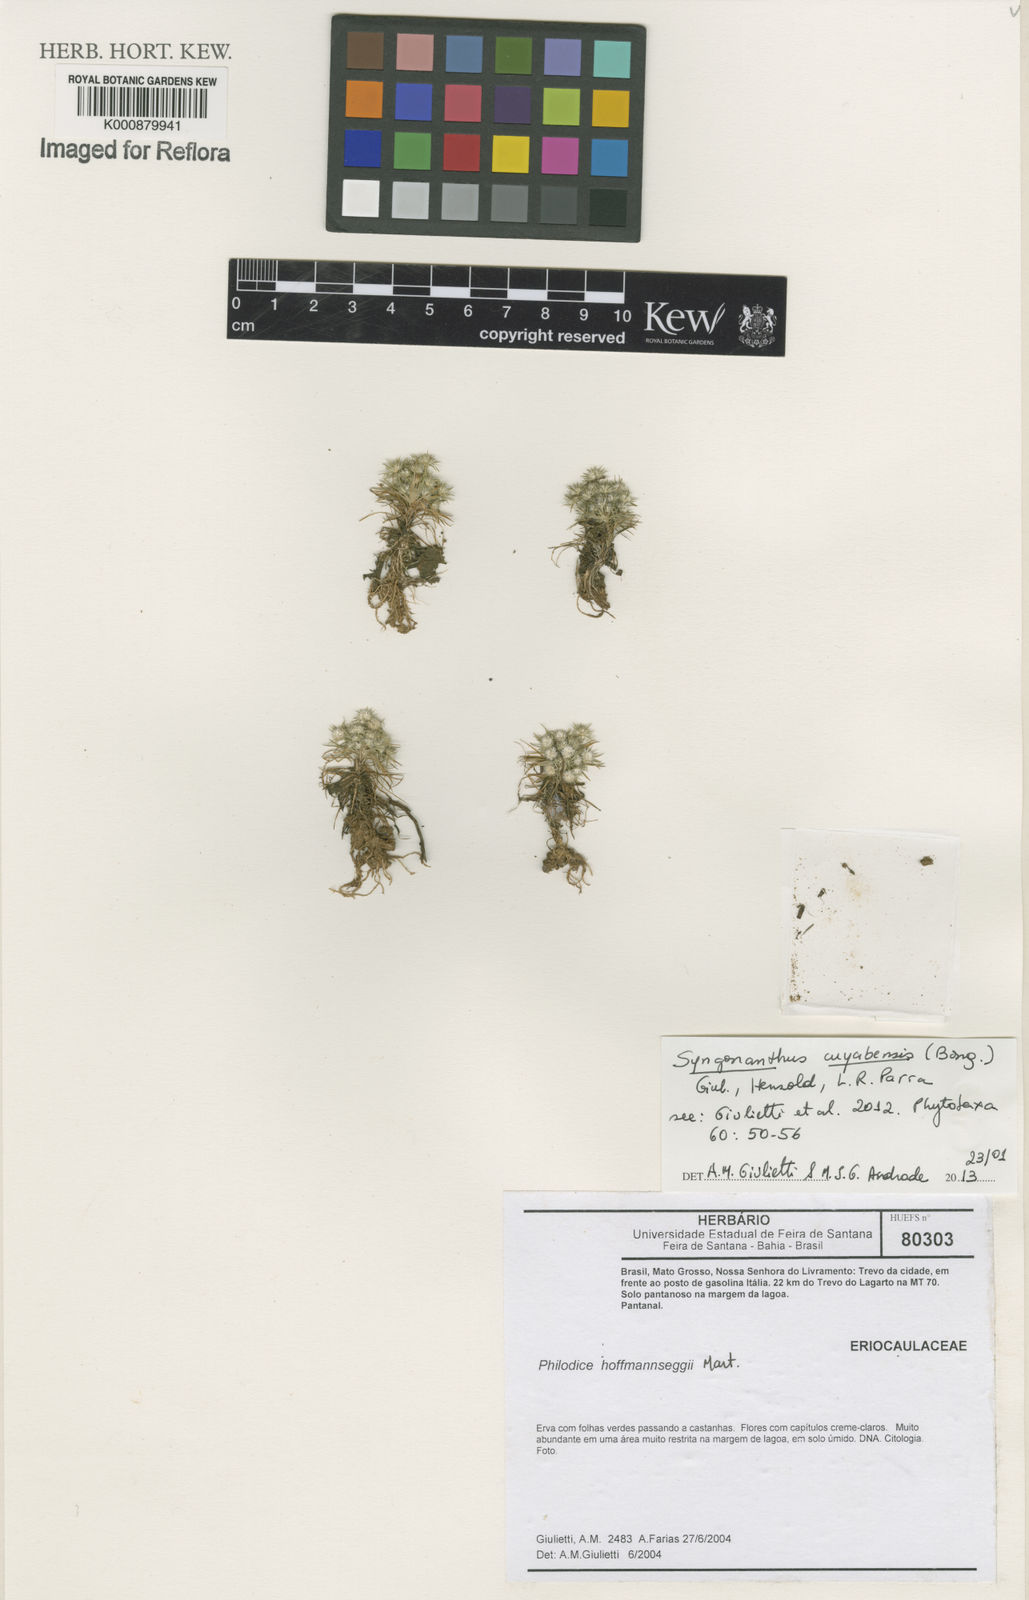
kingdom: Plantae
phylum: Tracheophyta
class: Liliopsida
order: Poales
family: Eriocaulaceae
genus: Syngonanthus
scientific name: Syngonanthus cuyabensis
